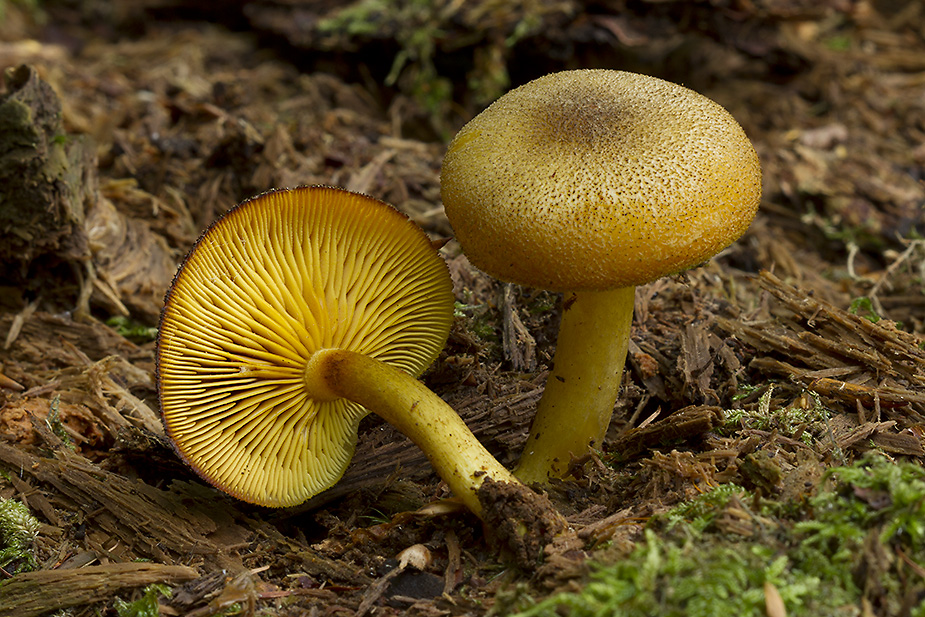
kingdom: Fungi
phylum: Basidiomycota
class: Agaricomycetes
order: Agaricales
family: Tricholomataceae
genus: Tricholomopsis
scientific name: Tricholomopsis decora
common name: sortskællet væbnerhat
